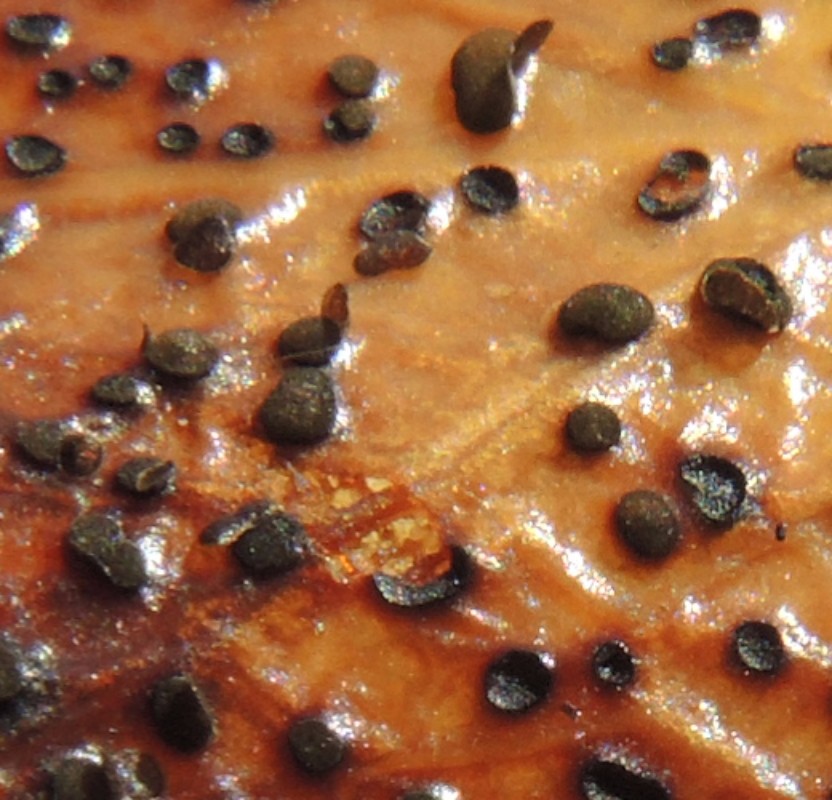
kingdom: Fungi
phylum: Ascomycota
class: Leotiomycetes
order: Helotiales
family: Cenangiaceae
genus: Trochila
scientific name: Trochila ilicina
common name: kristtorn-lågskive
